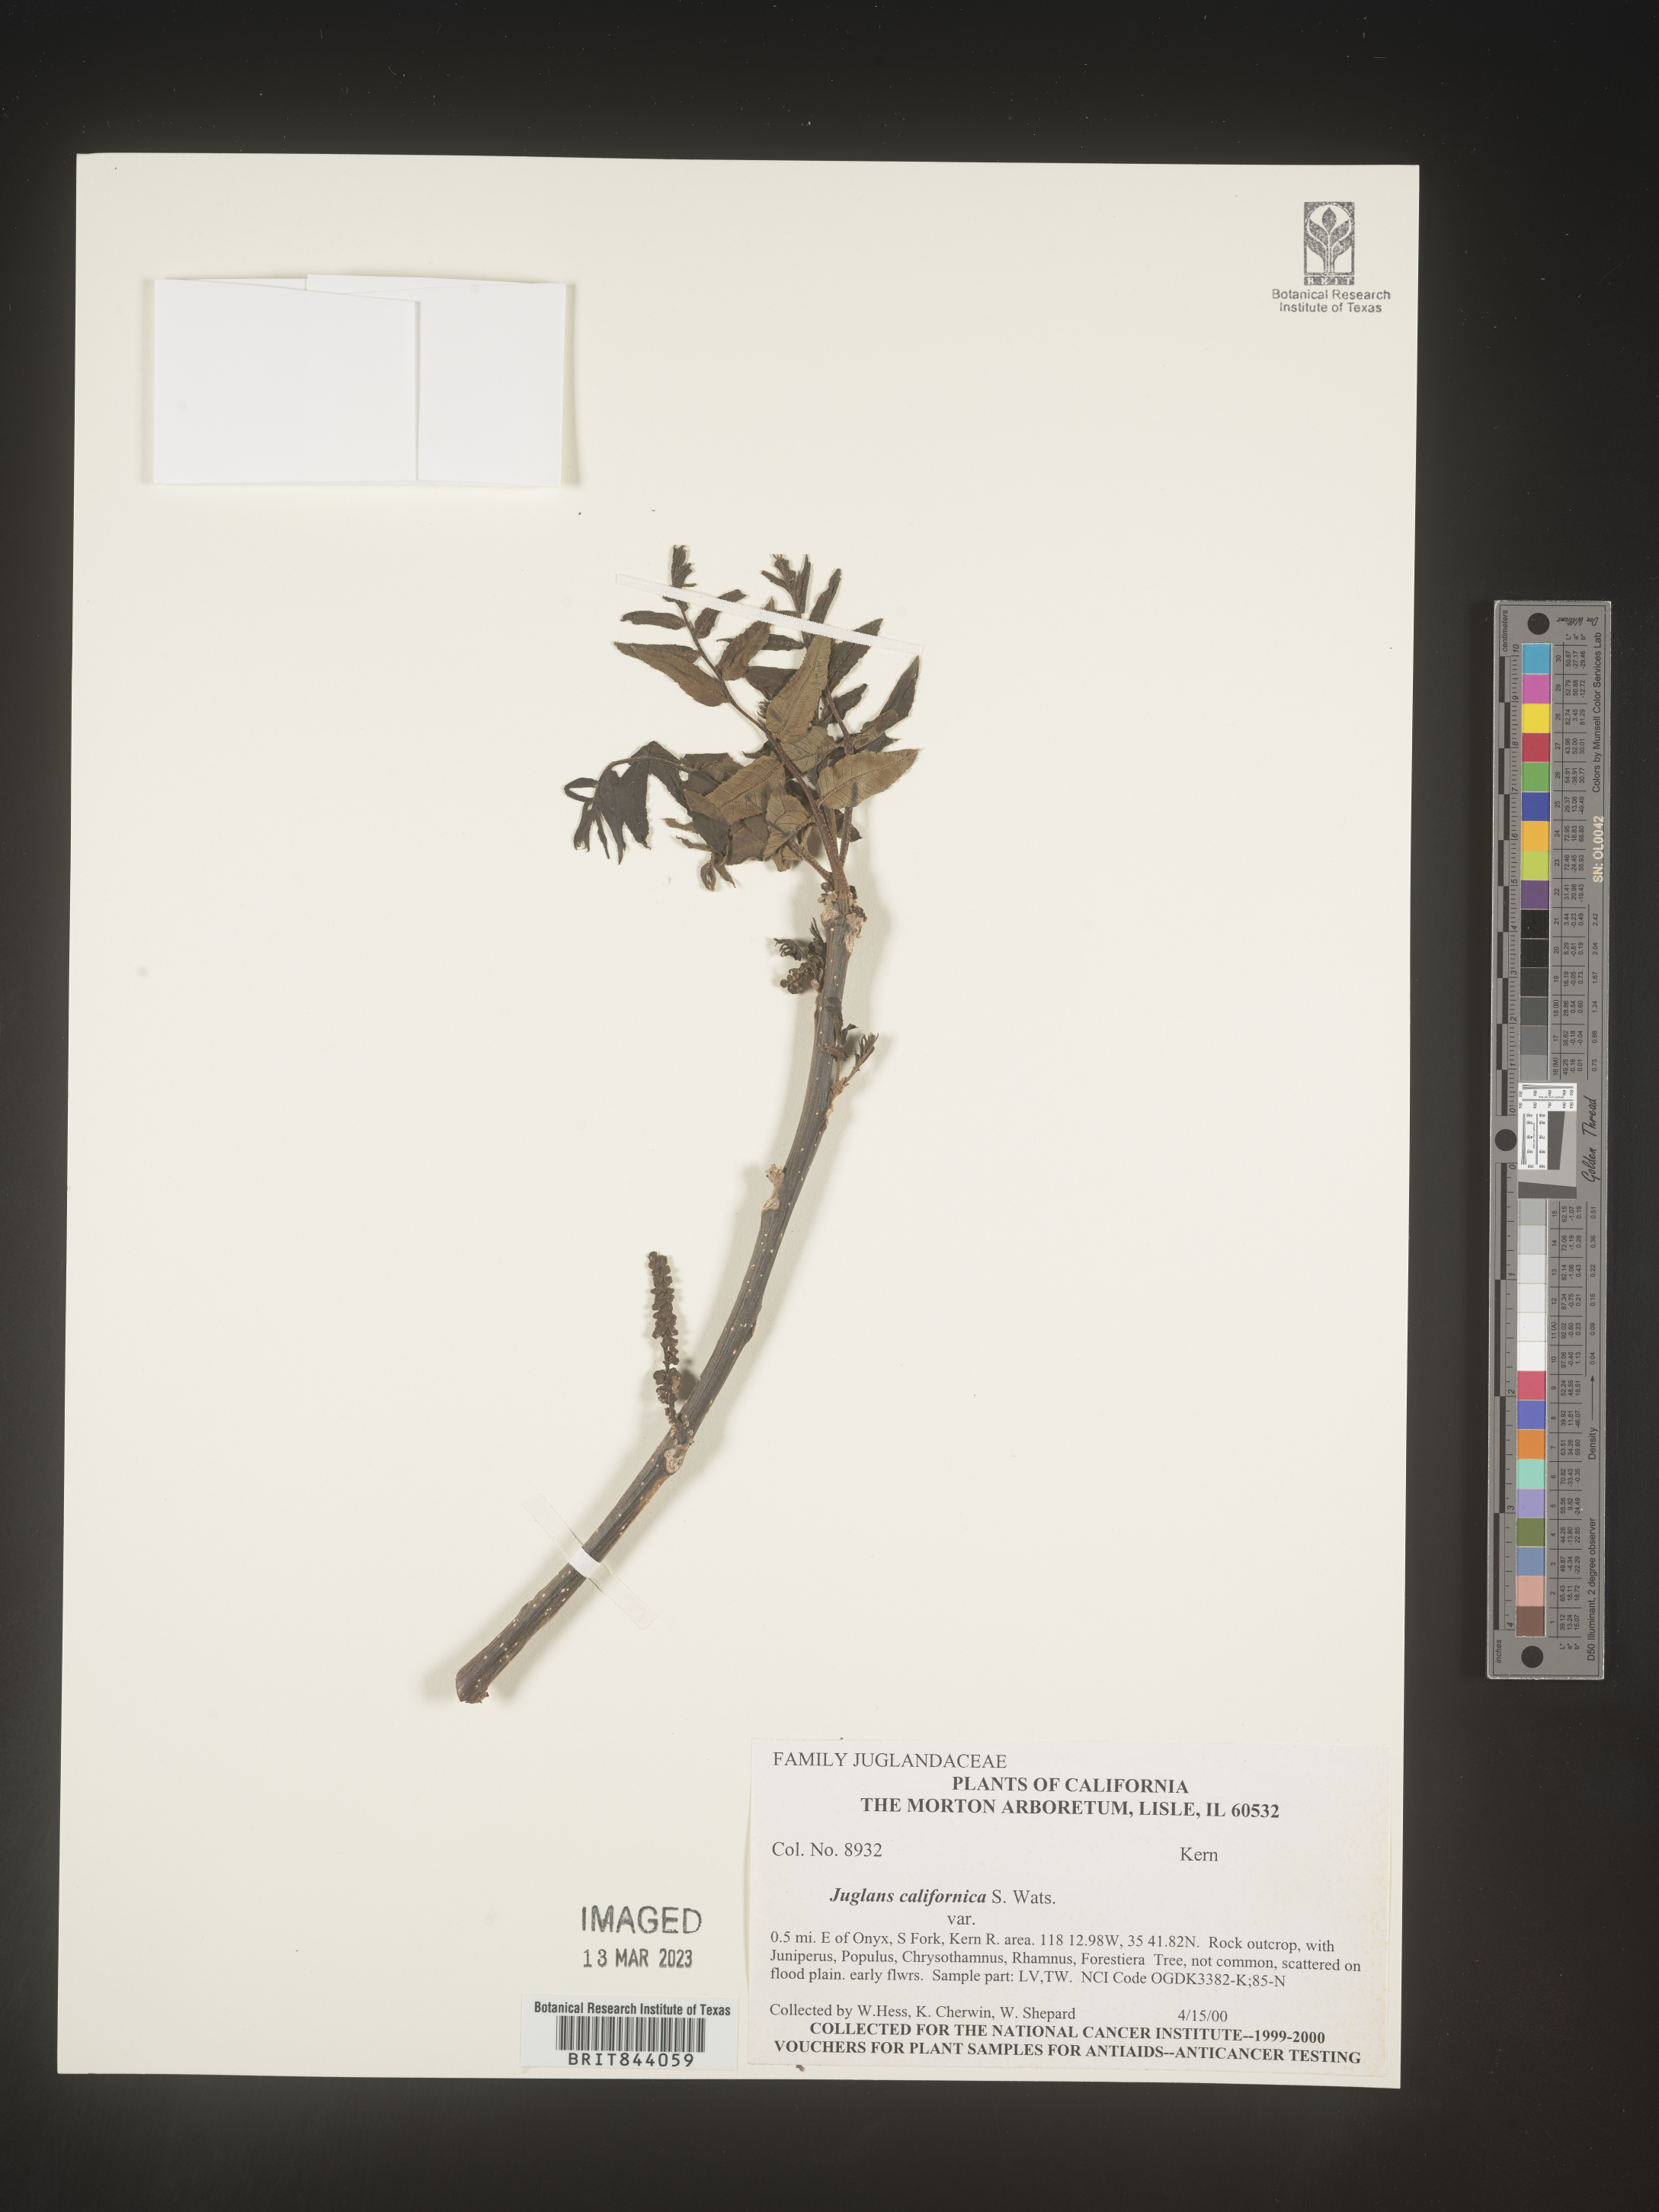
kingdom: Plantae
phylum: Tracheophyta
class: Magnoliopsida
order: Fagales
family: Juglandaceae
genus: Juglans
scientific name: Juglans californica
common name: Southern california black walnut
